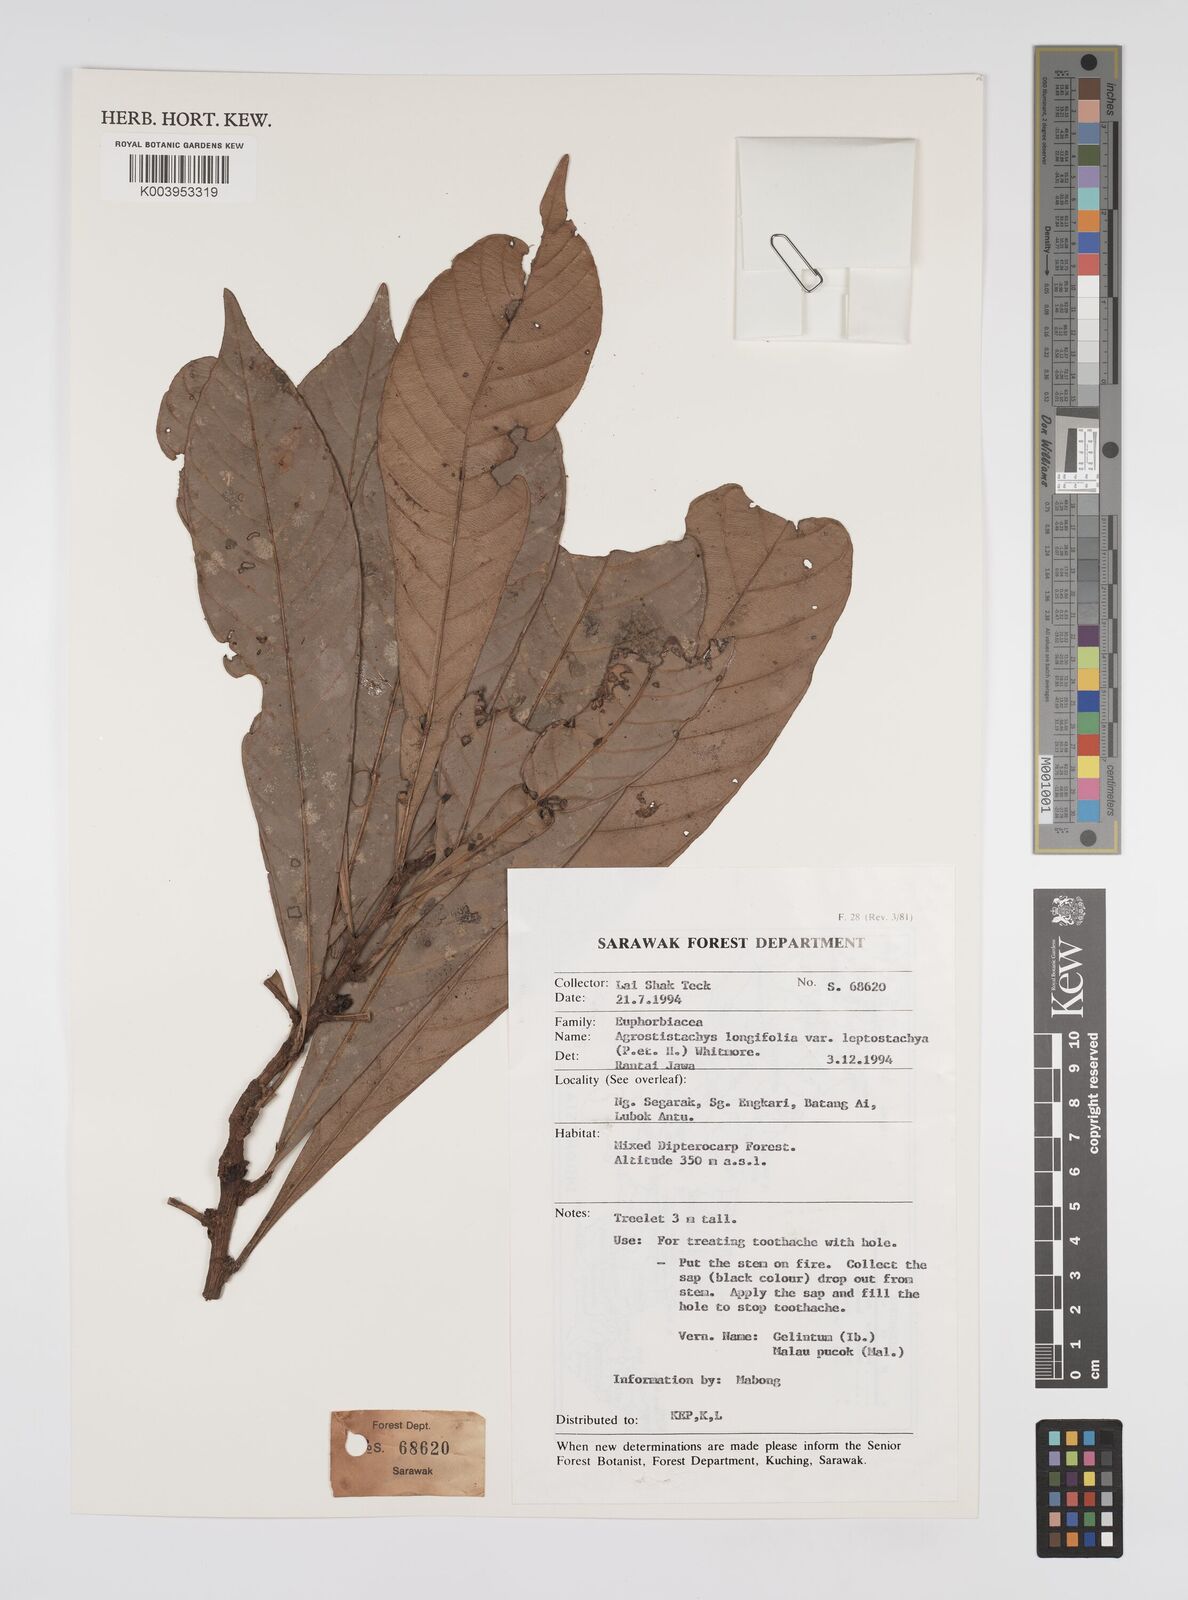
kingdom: Plantae
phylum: Tracheophyta
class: Magnoliopsida
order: Malpighiales
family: Euphorbiaceae
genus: Agrostistachys
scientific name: Agrostistachys
